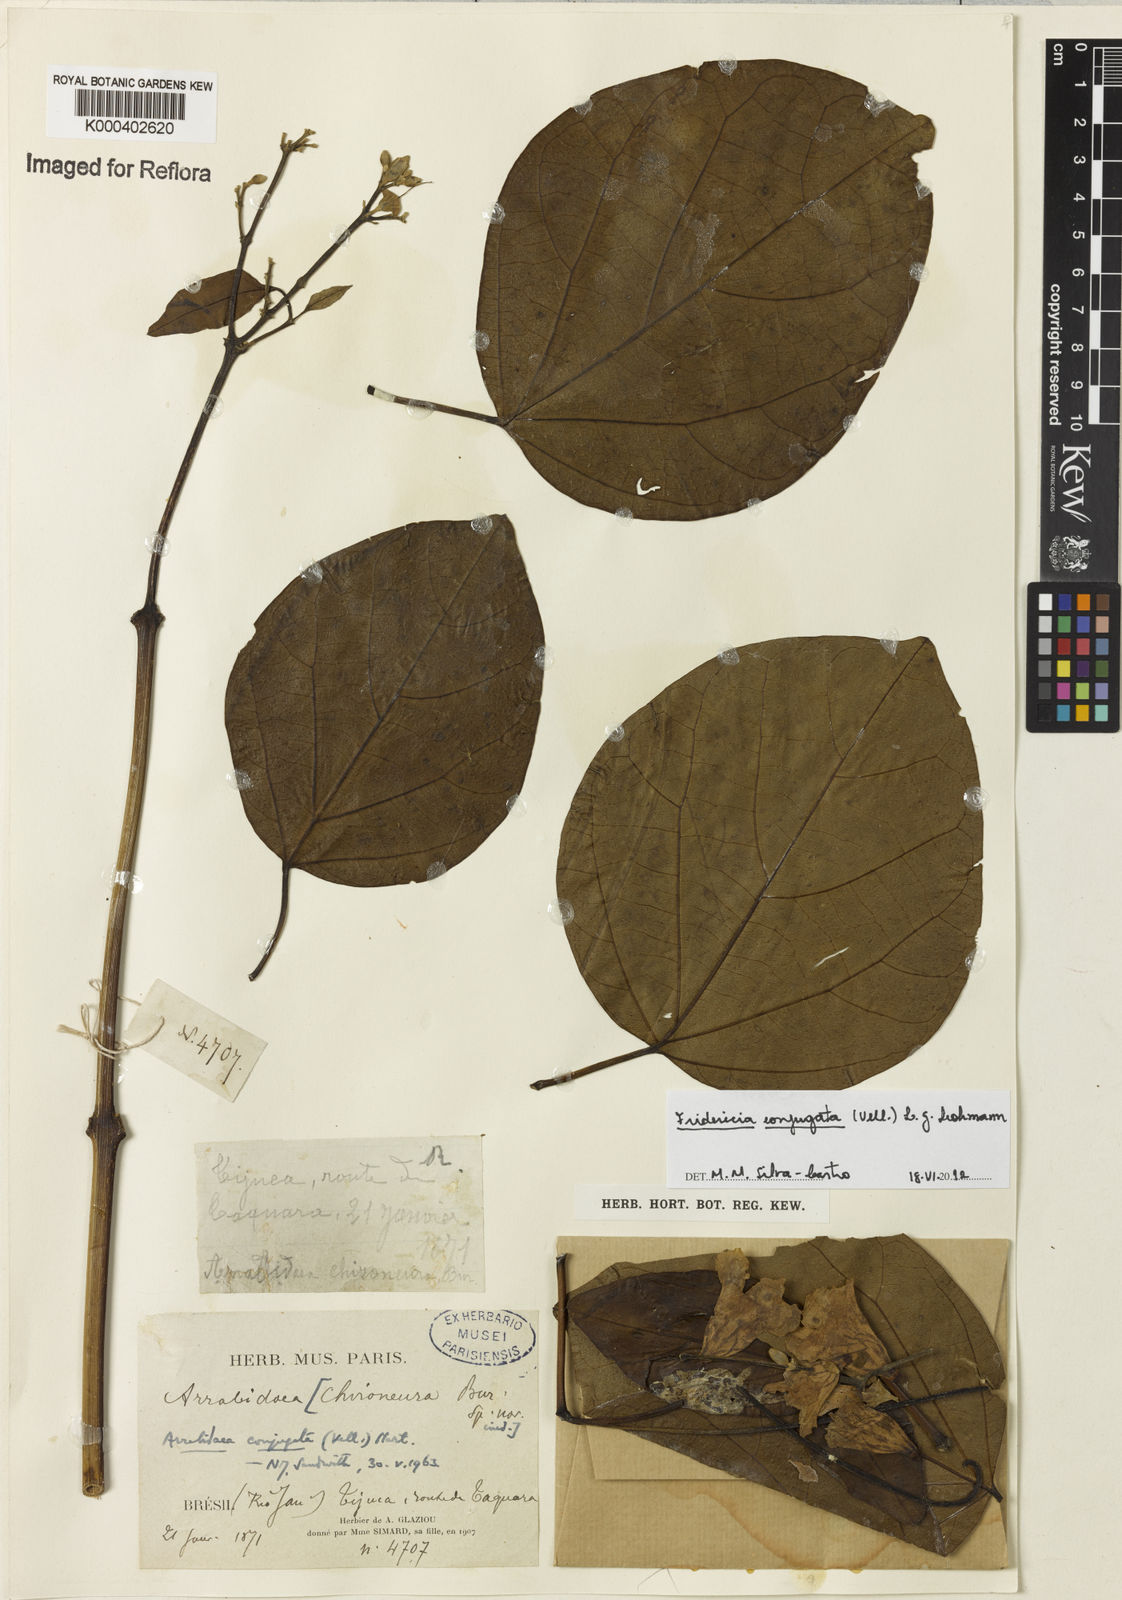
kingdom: Plantae
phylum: Tracheophyta
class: Magnoliopsida
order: Lamiales
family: Bignoniaceae
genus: Fridericia
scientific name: Fridericia conjugata
